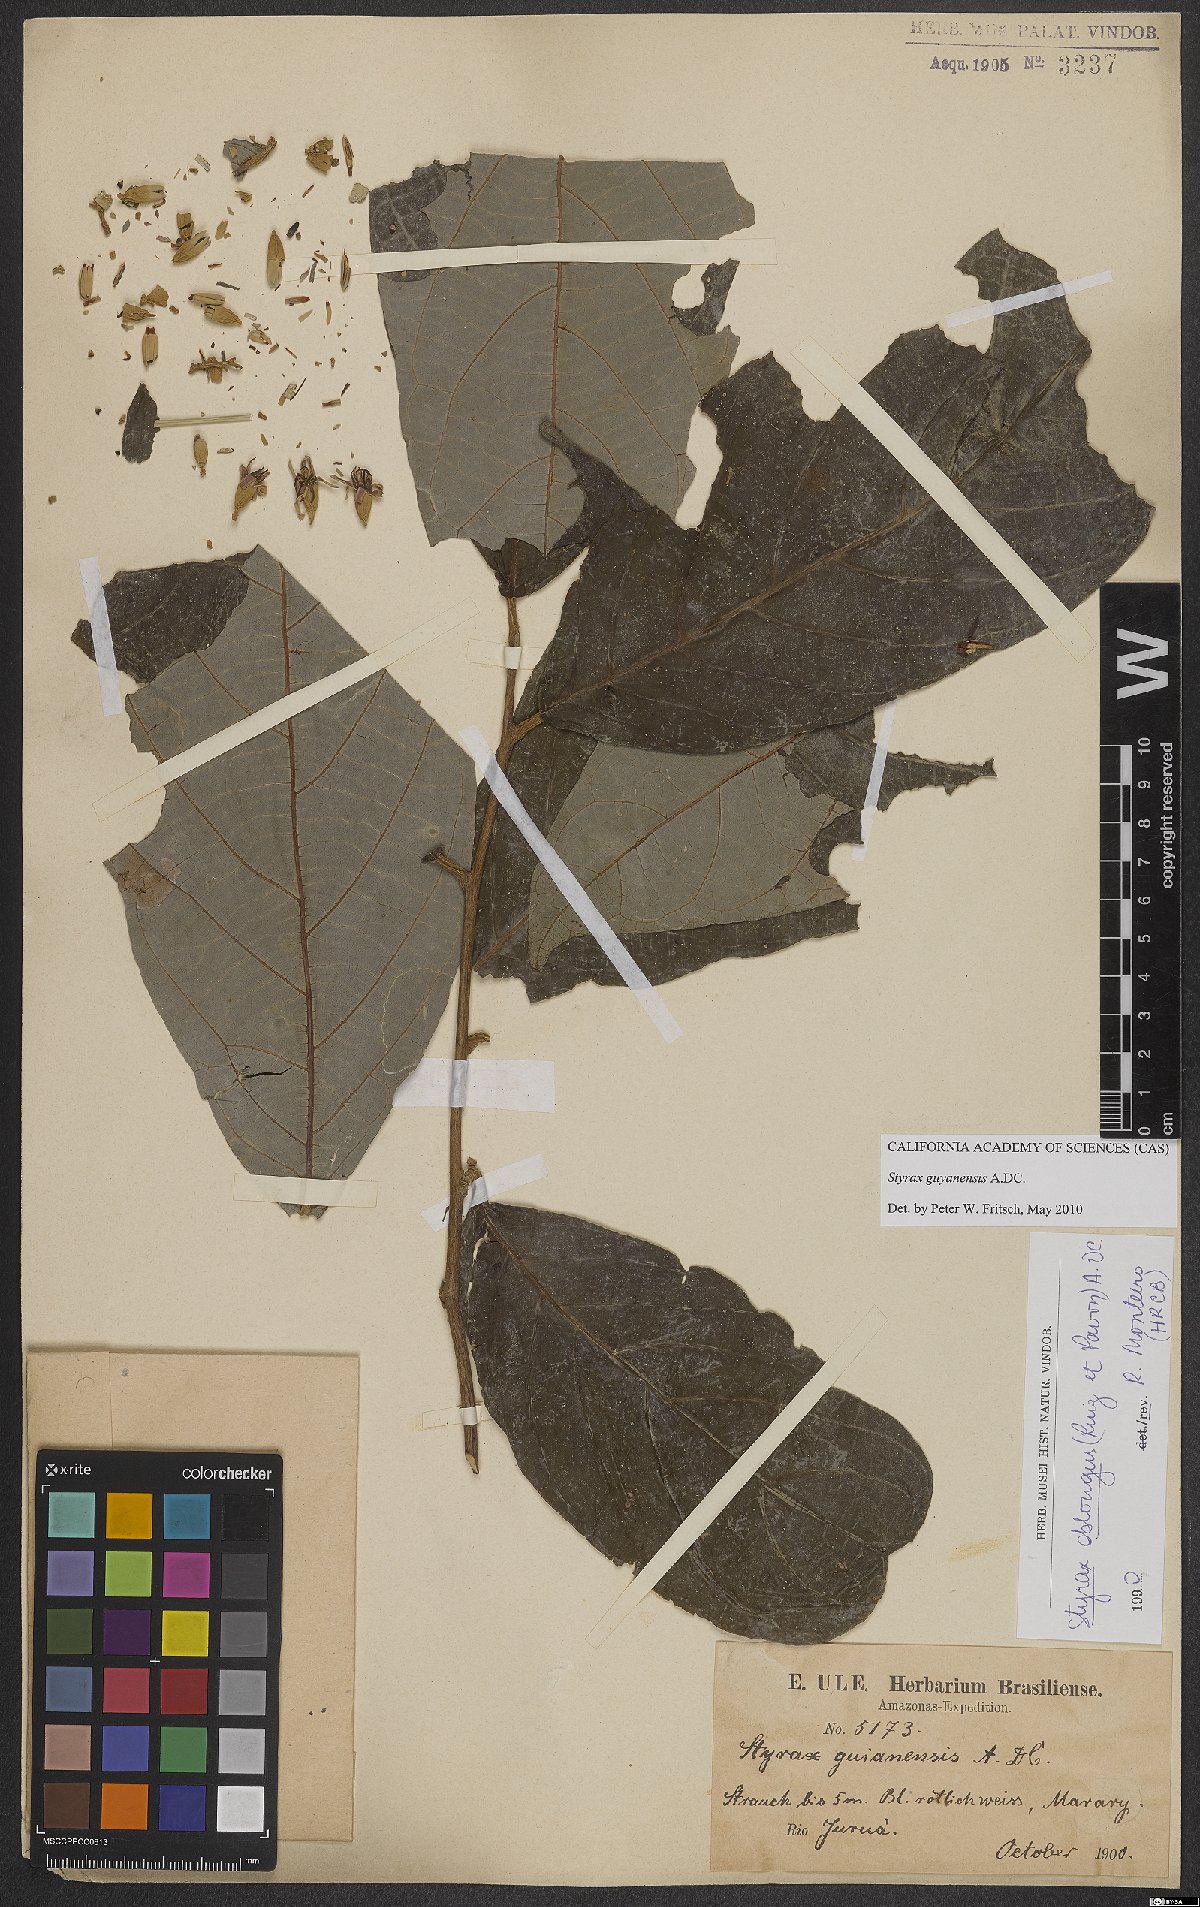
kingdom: Plantae
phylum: Tracheophyta
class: Magnoliopsida
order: Ericales
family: Styracaceae
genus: Styrax
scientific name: Styrax guyanensis
